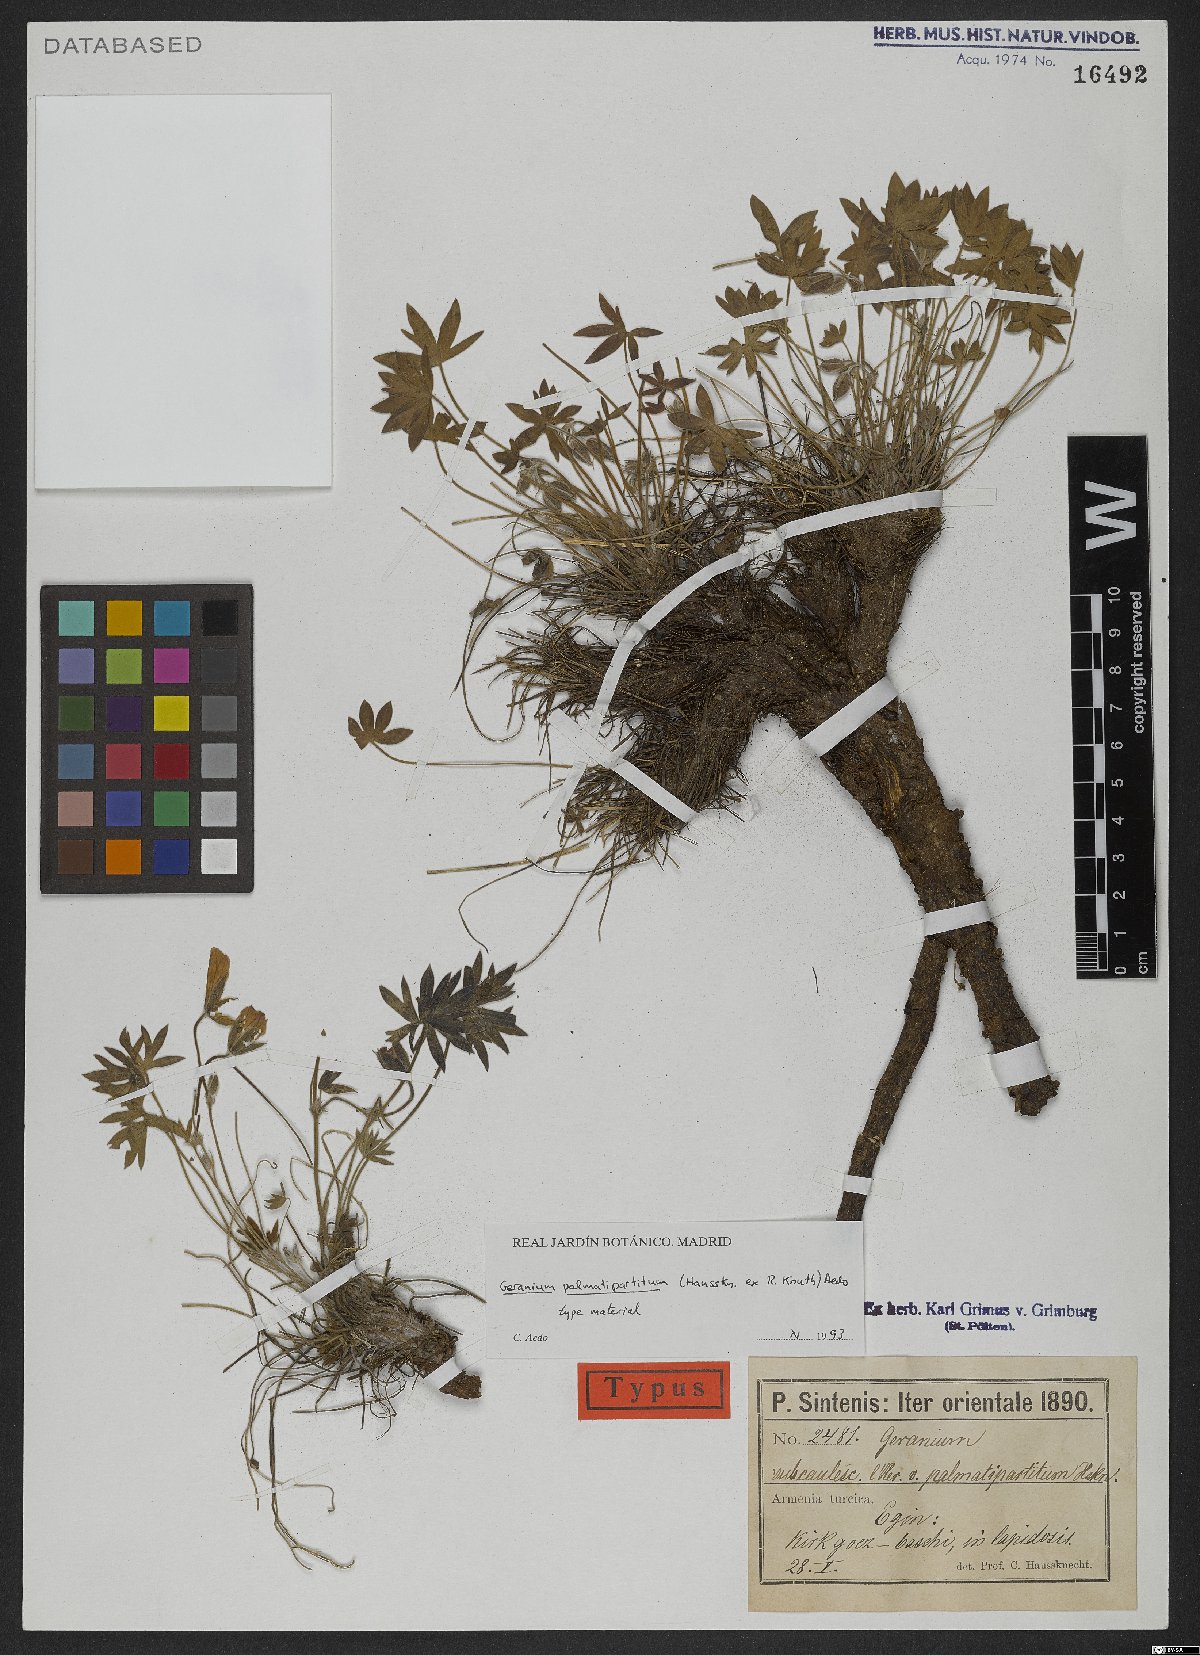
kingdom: Plantae
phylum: Tracheophyta
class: Magnoliopsida
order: Geraniales
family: Geraniaceae
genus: Geranium
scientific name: Geranium palmatipartitum
